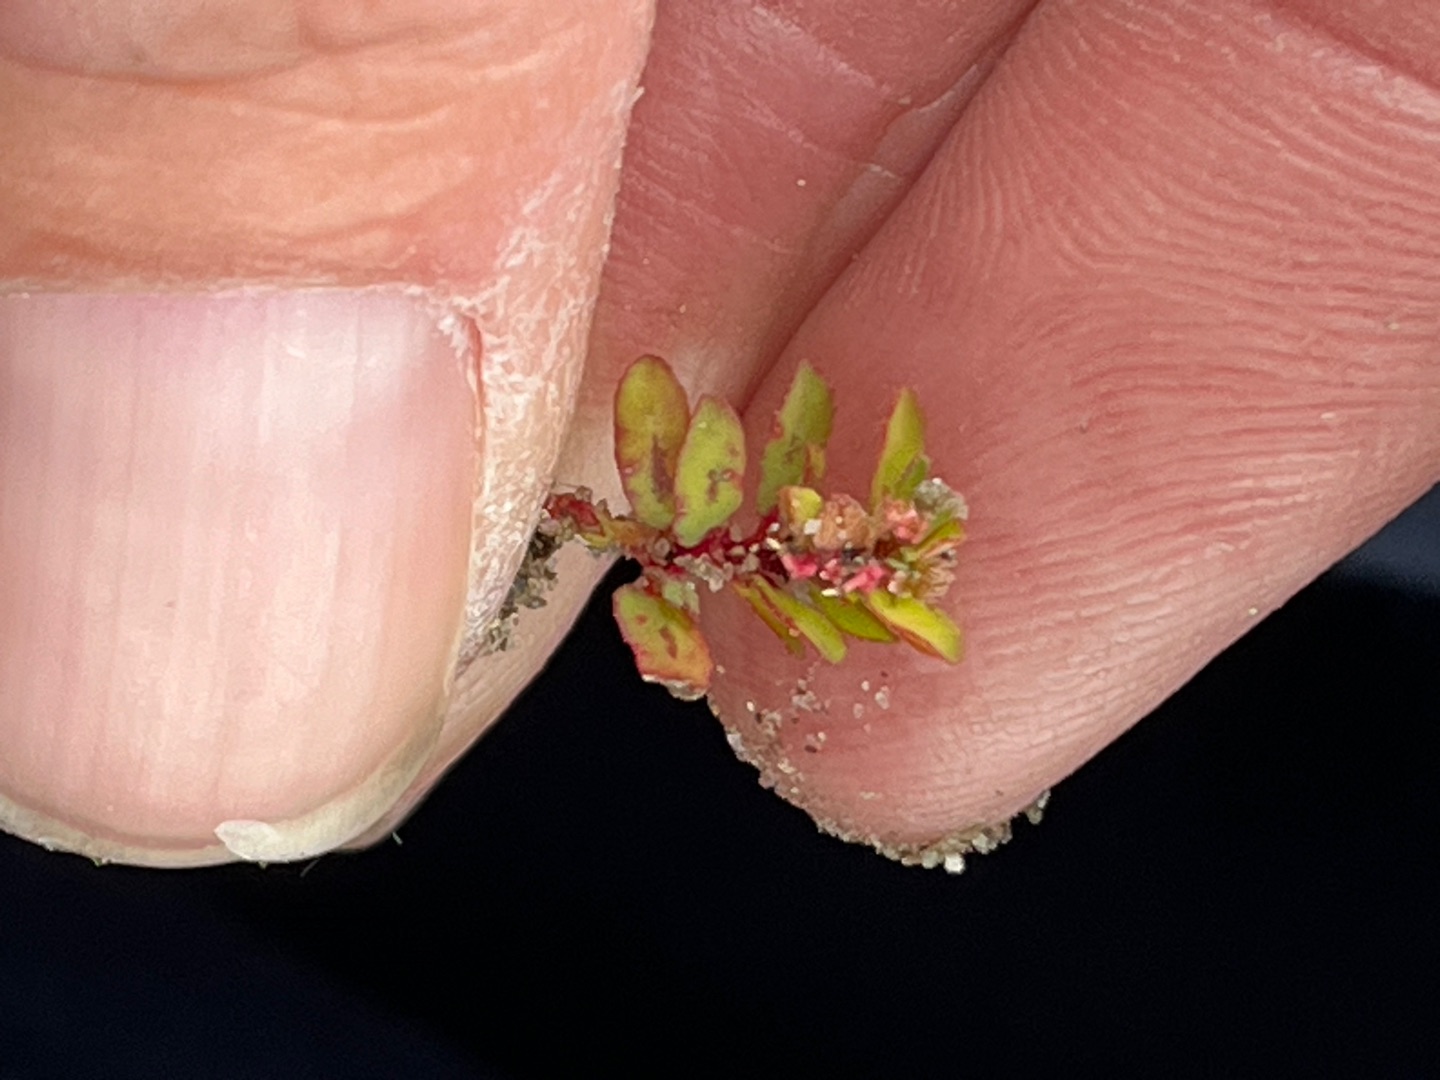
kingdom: Plantae
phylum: Tracheophyta
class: Magnoliopsida
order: Malpighiales
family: Euphorbiaceae
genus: Euphorbia
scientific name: Euphorbia maculata
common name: Plet-vortemælk
